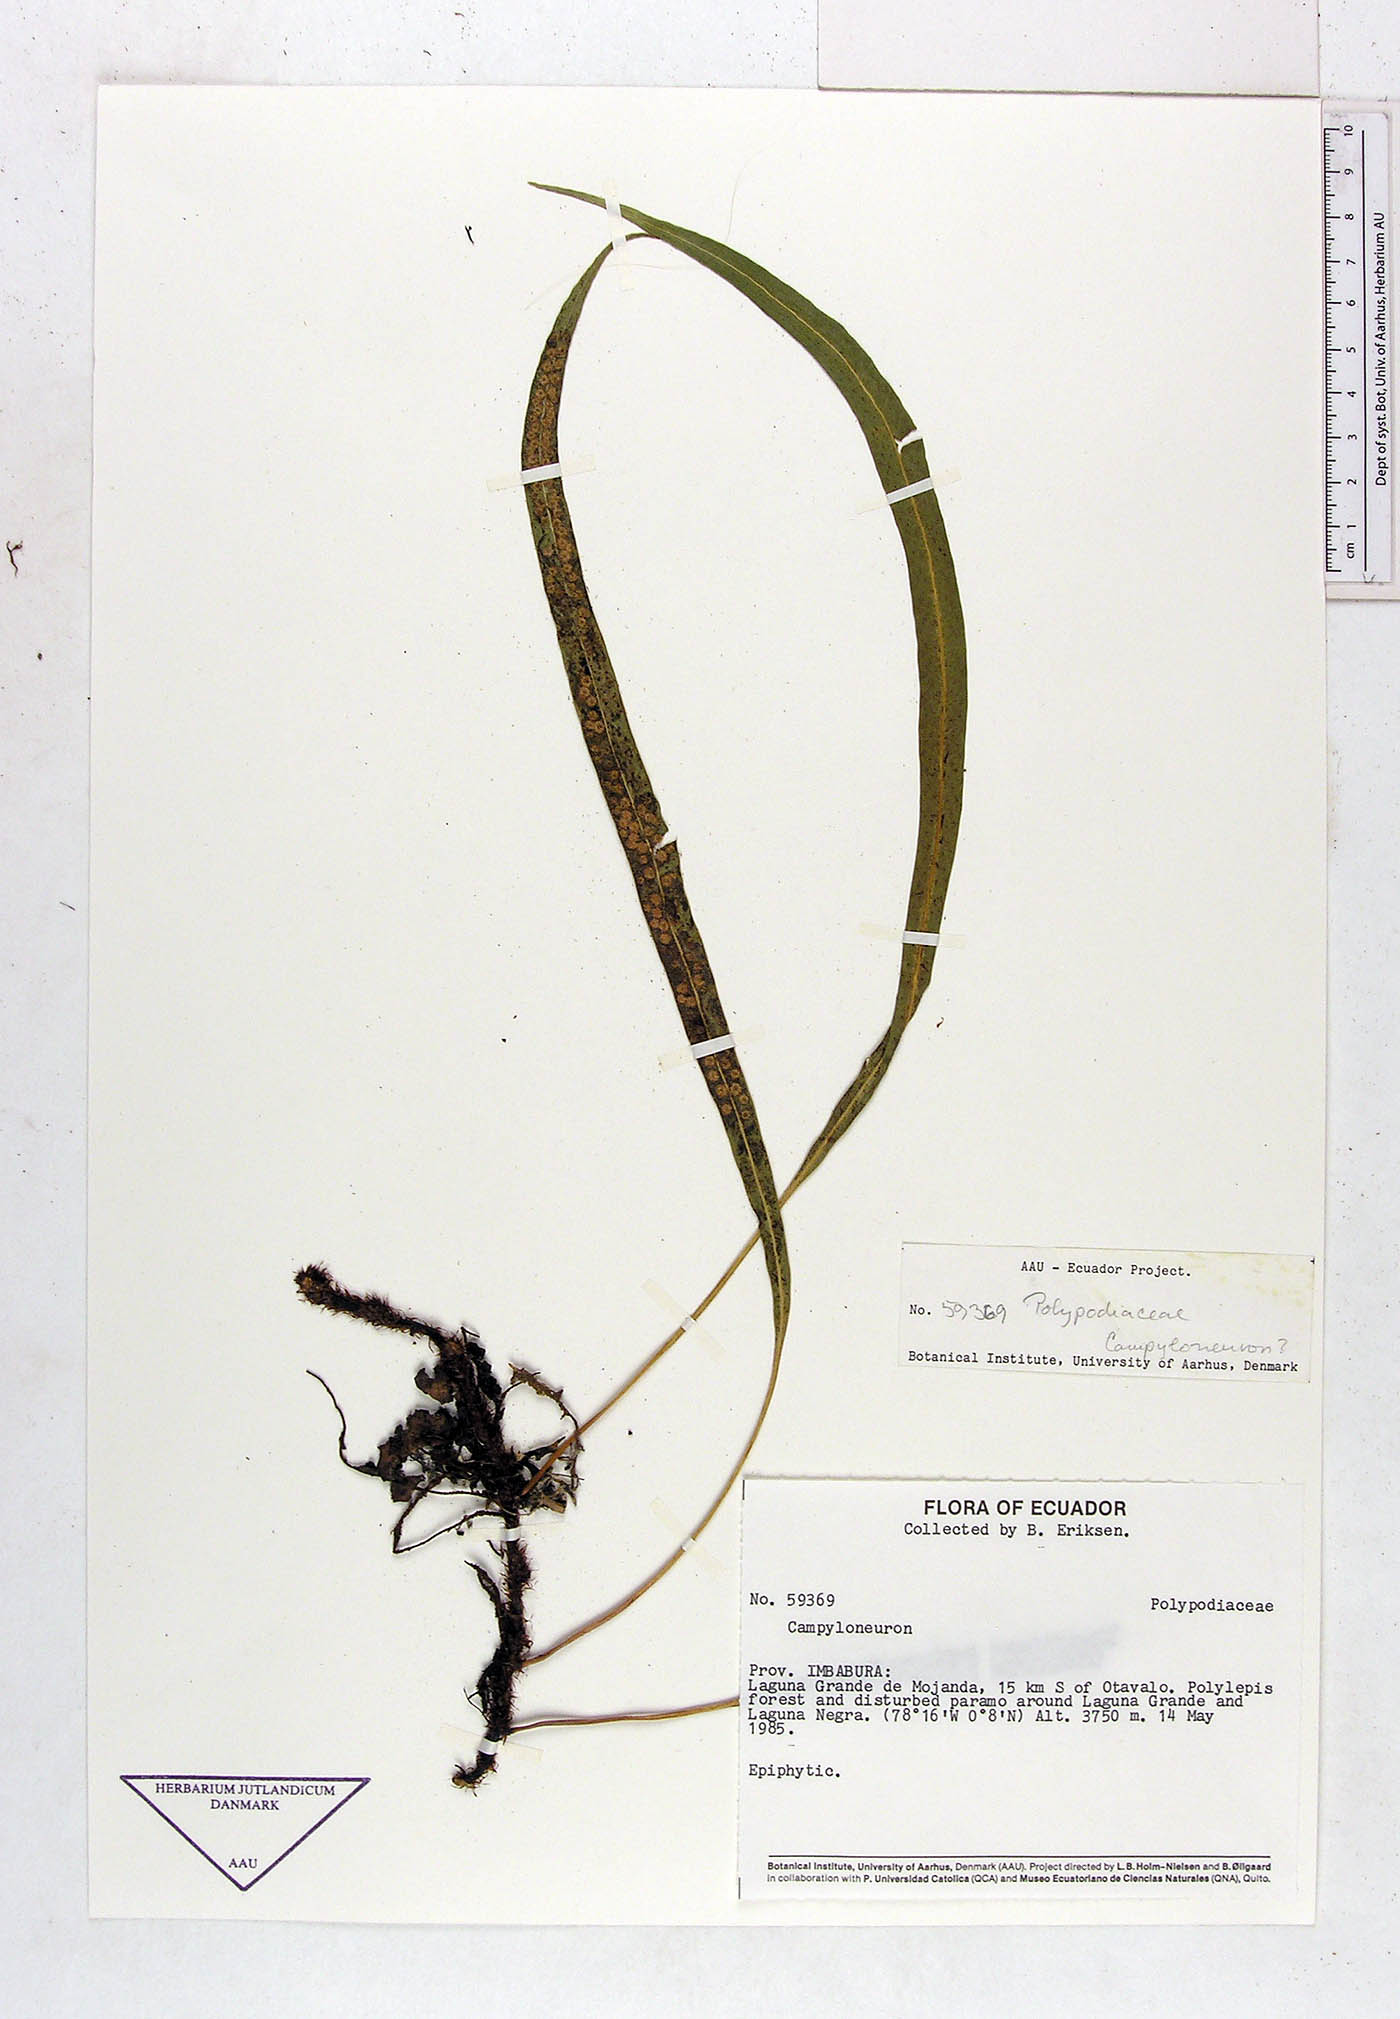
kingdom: Plantae
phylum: Tracheophyta
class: Polypodiopsida
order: Polypodiales
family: Polypodiaceae
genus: Campyloneurum
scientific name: Campyloneurum solutum
